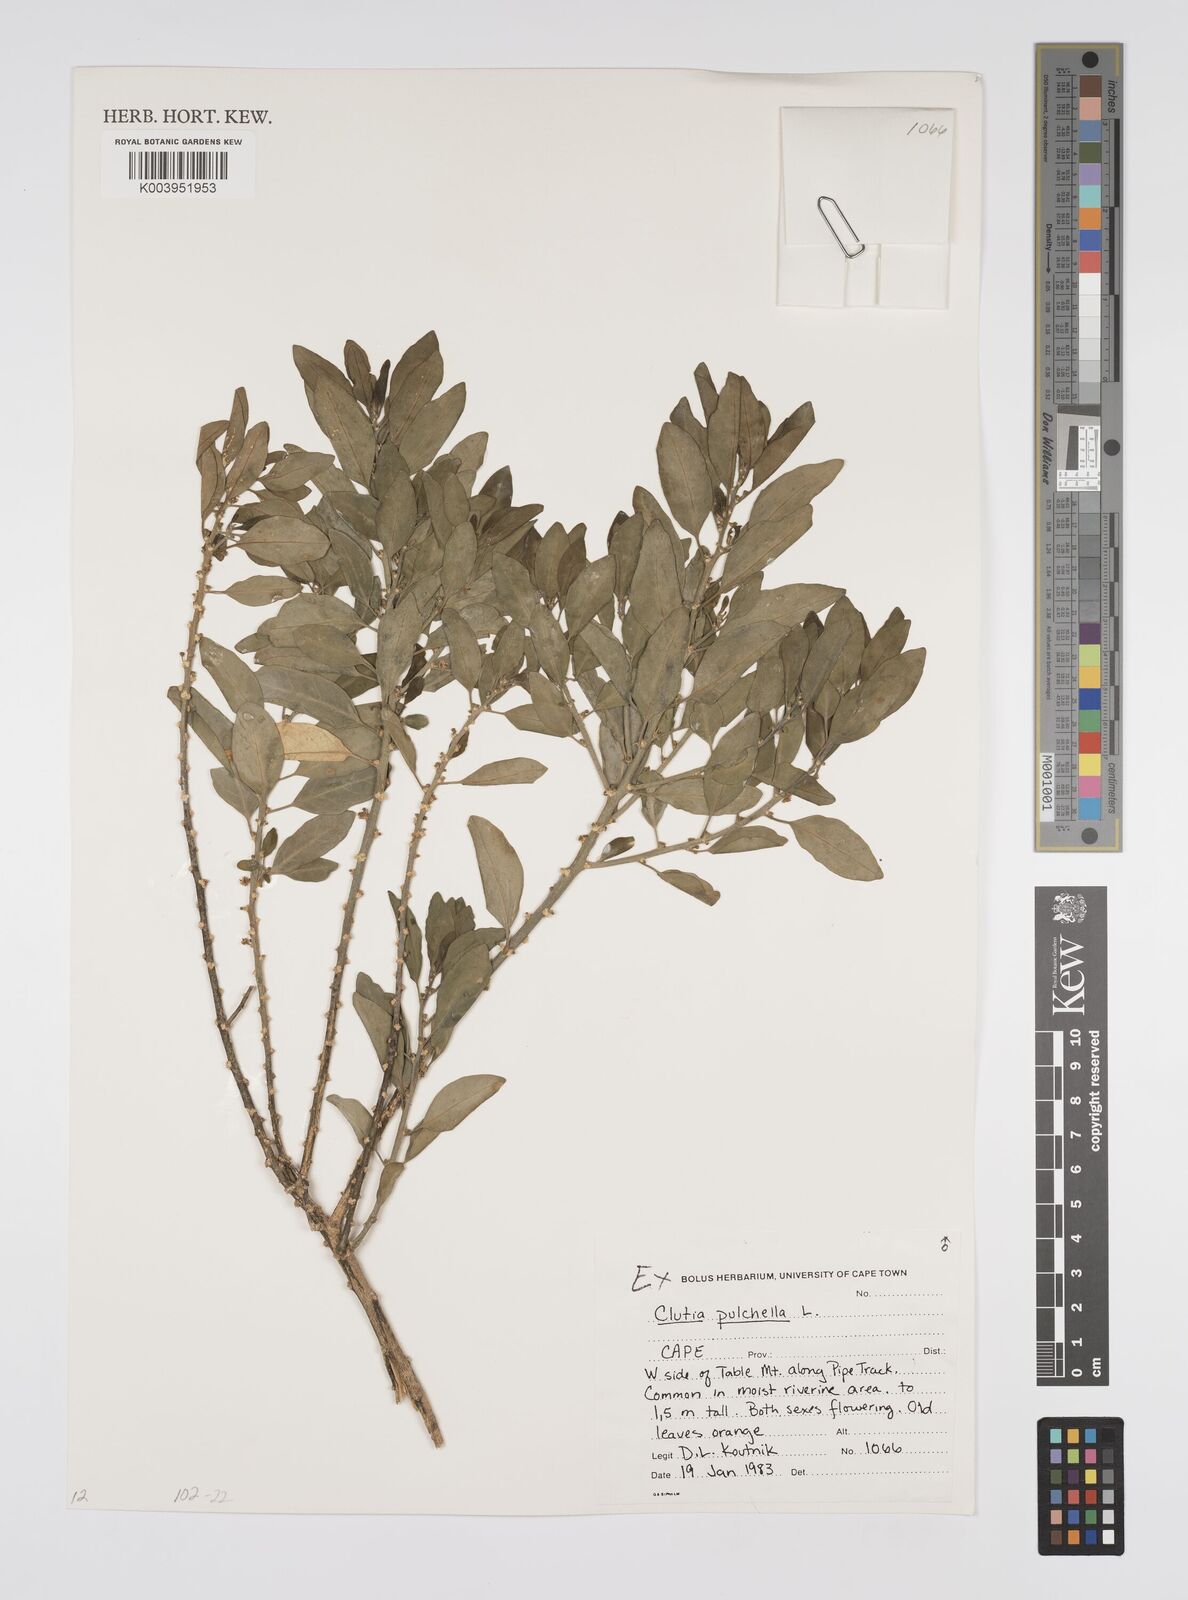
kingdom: Plantae
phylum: Tracheophyta
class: Magnoliopsida
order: Malpighiales
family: Peraceae
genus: Clutia
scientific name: Clutia pulchella
